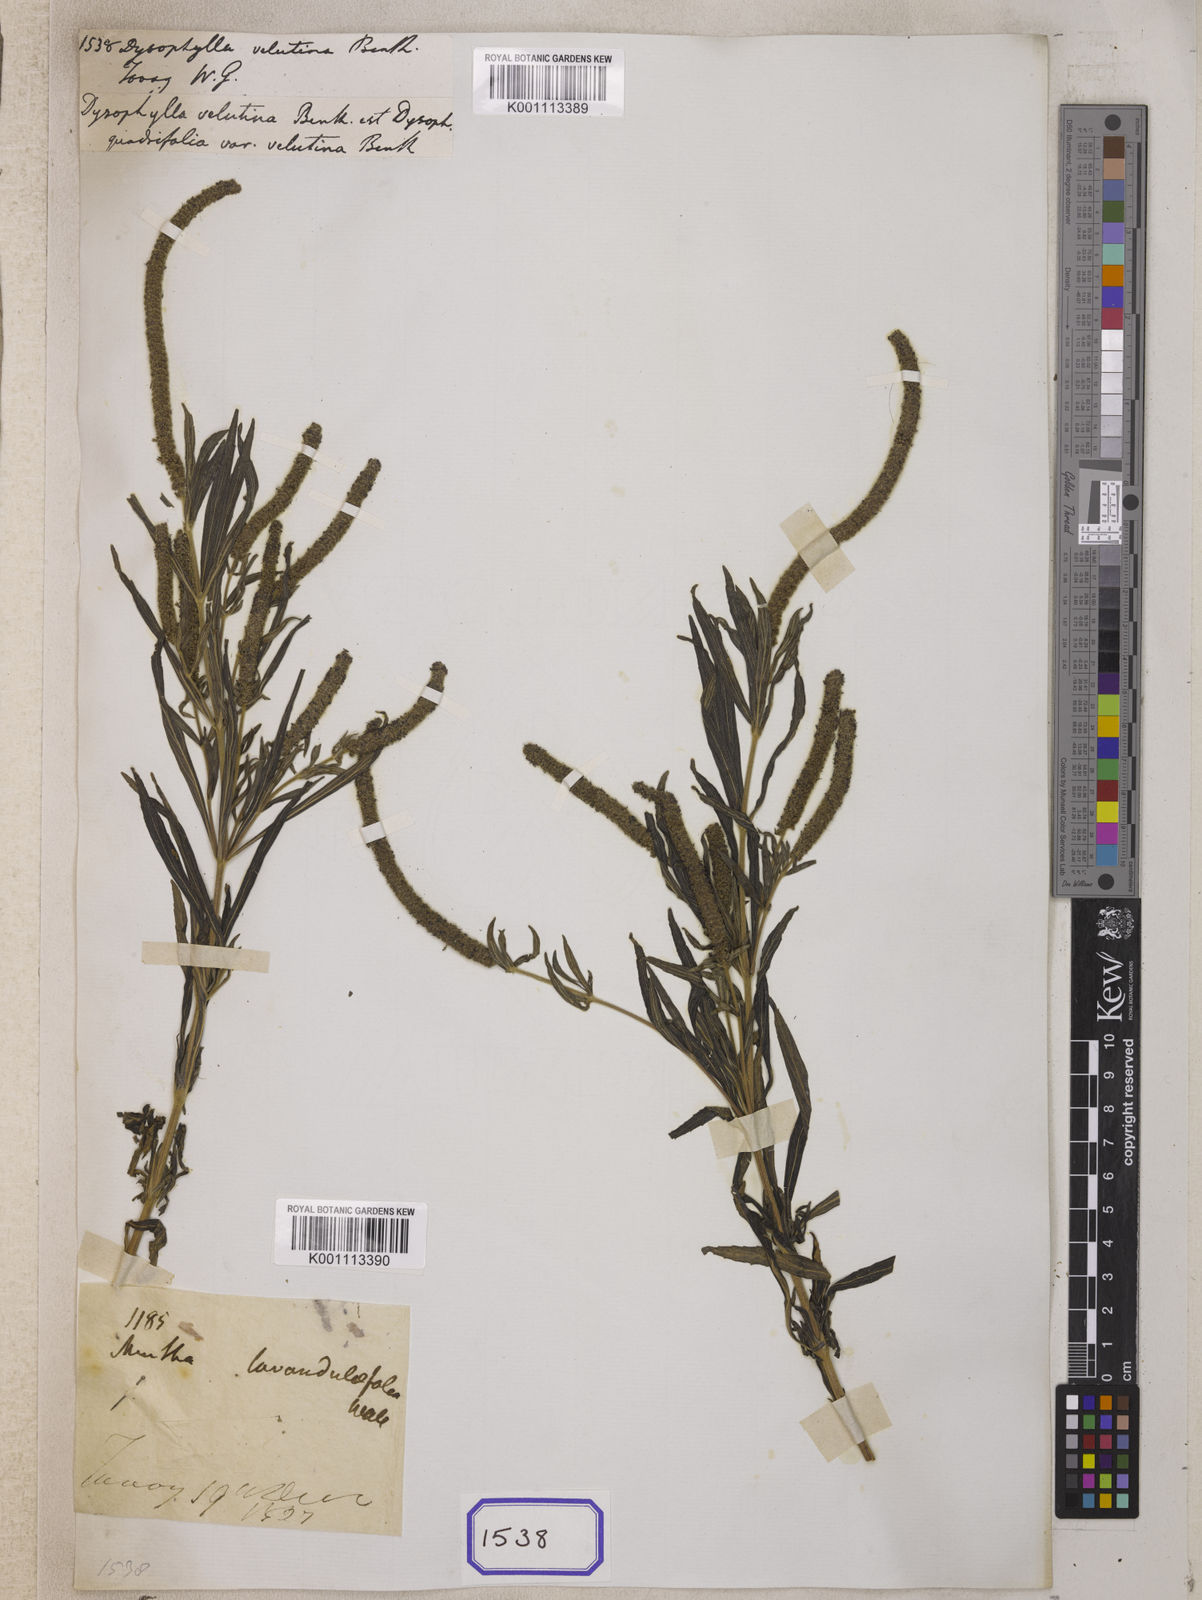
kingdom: Plantae
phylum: Tracheophyta
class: Magnoliopsida
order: Lamiales
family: Lamiaceae
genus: Pogostemon
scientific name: Pogostemon quadrifolius
